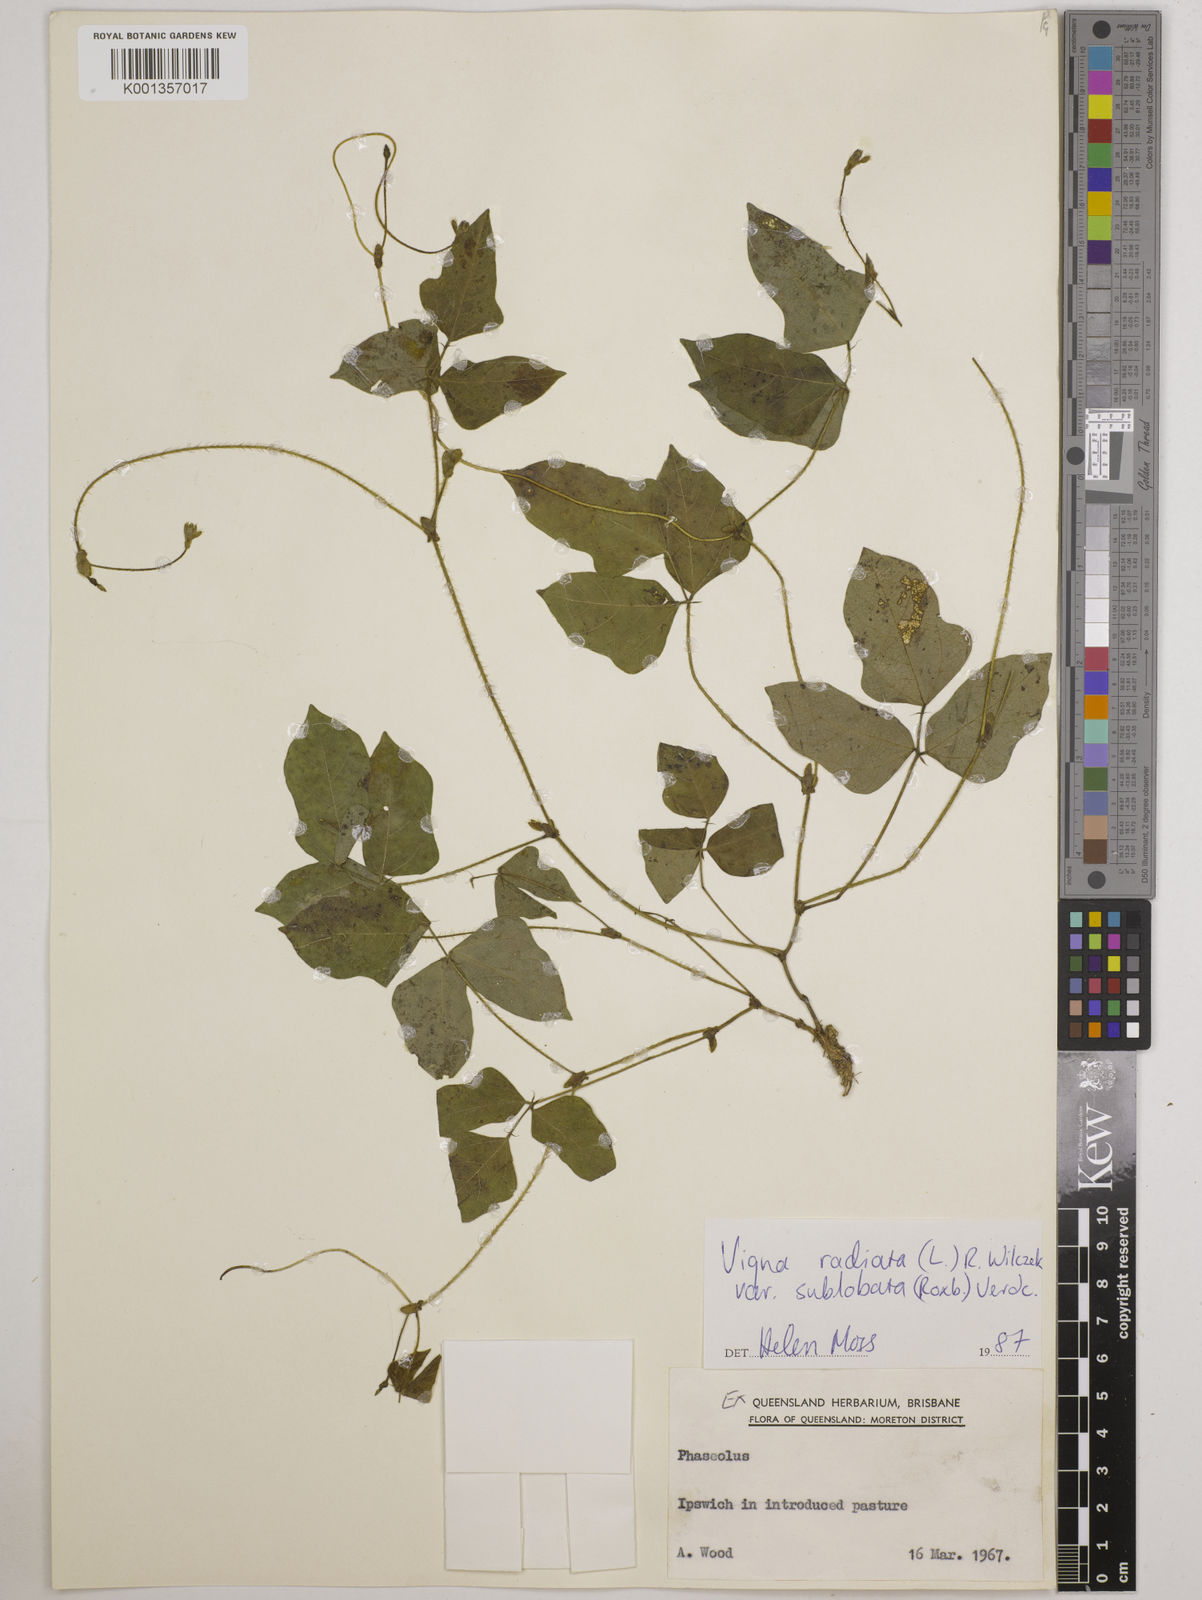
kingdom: Plantae
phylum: Tracheophyta
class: Magnoliopsida
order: Fabales
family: Fabaceae
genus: Vigna
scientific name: Vigna radiata
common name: Mung-bean
